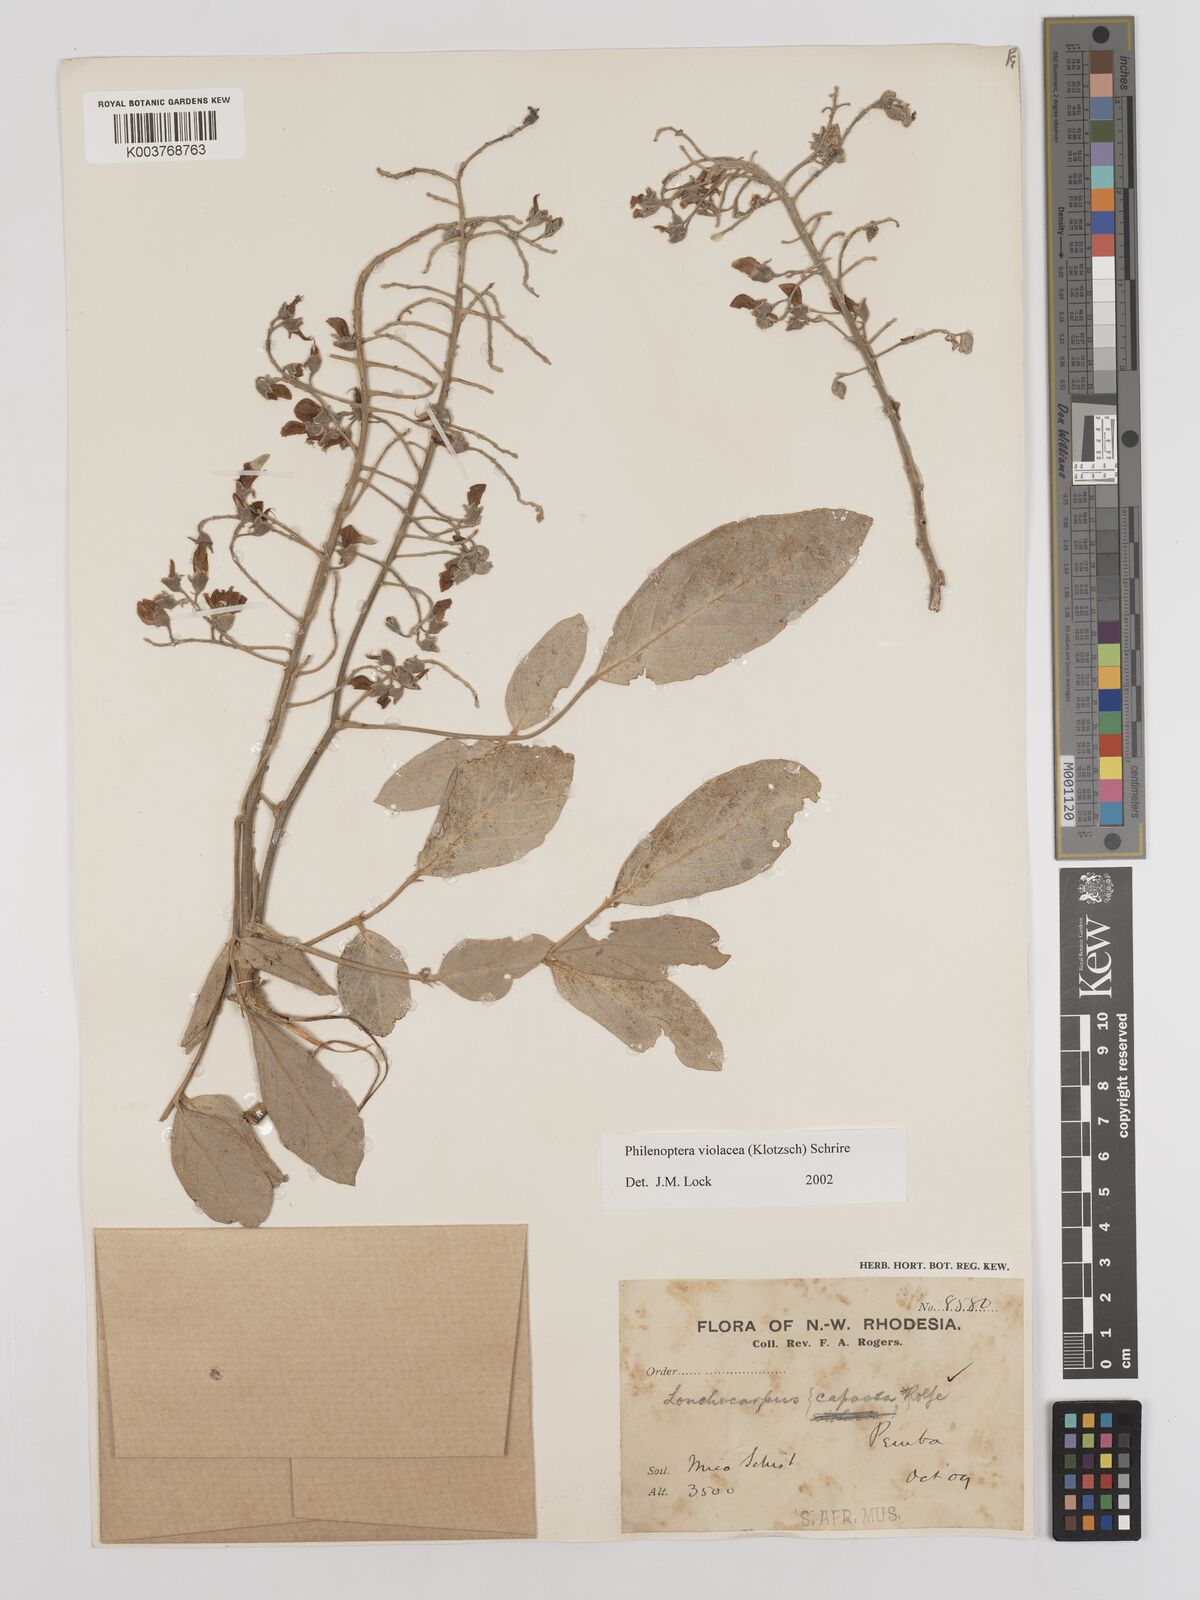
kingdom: Plantae
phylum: Tracheophyta
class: Magnoliopsida
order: Fabales
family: Fabaceae
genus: Philenoptera
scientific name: Philenoptera violacea
